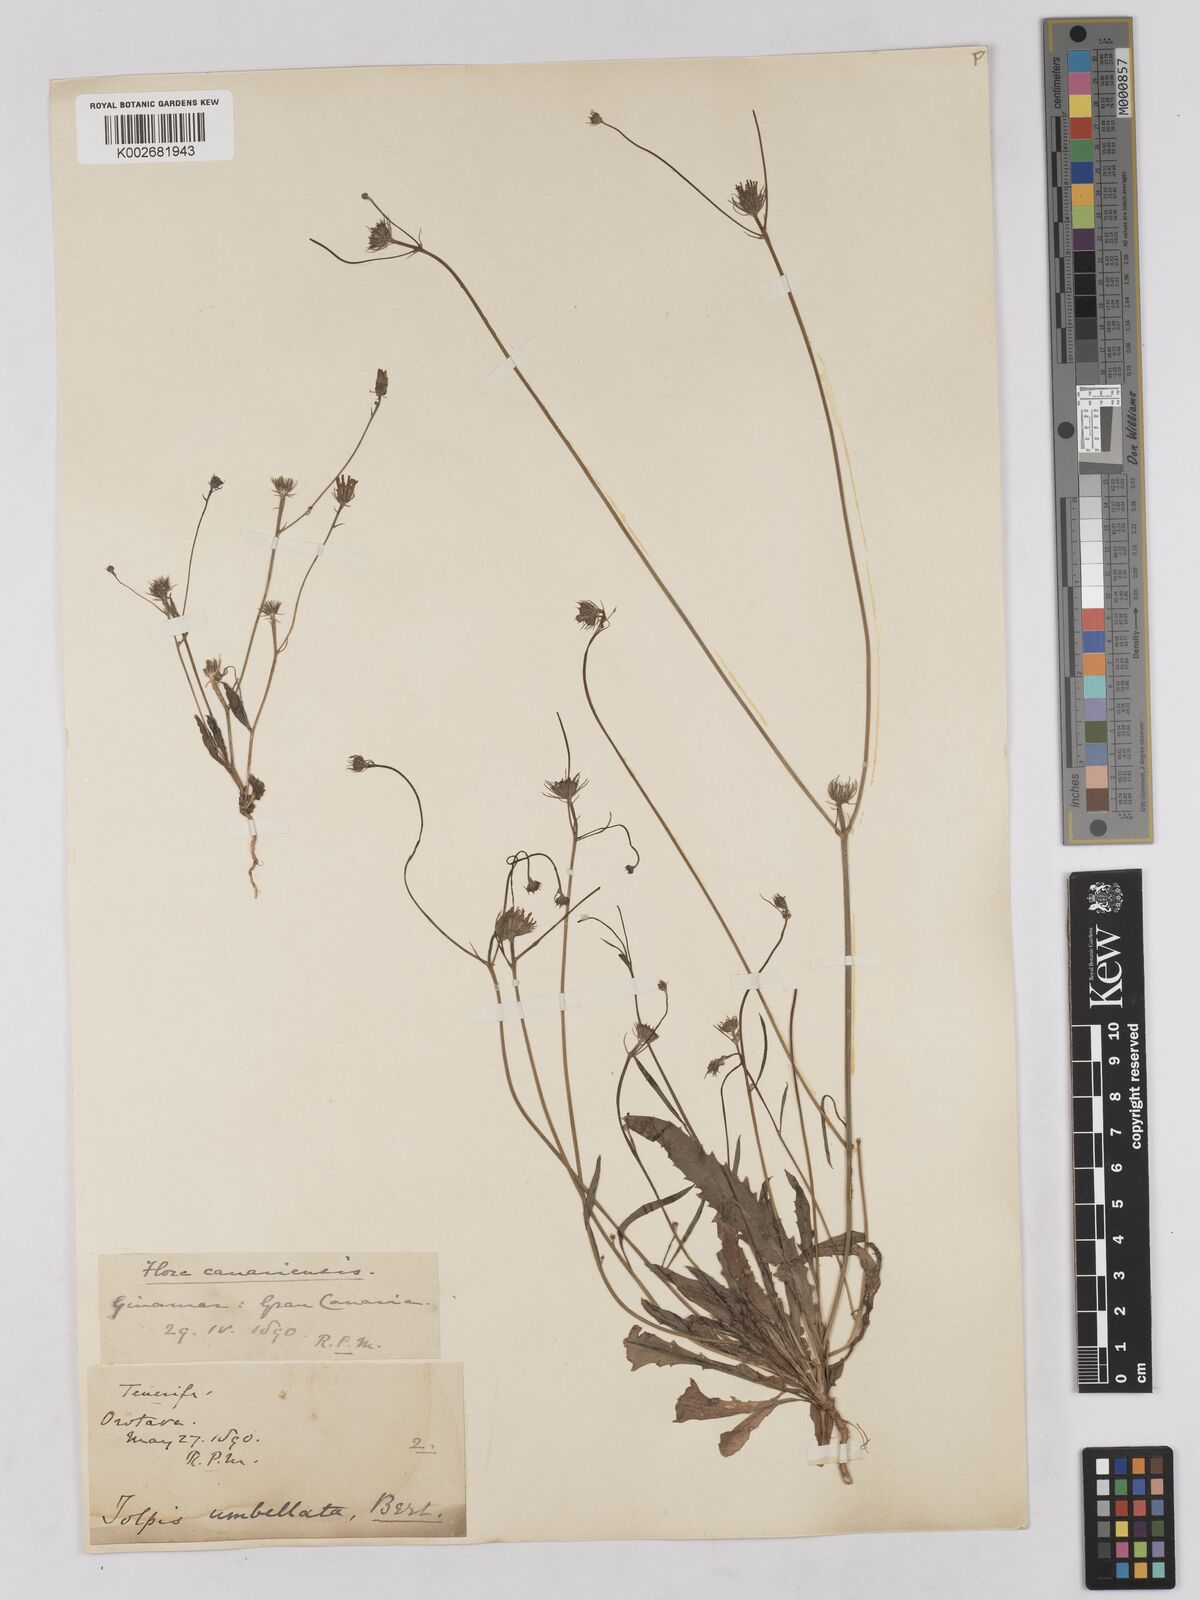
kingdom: Plantae
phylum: Tracheophyta
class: Magnoliopsida
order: Asterales
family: Asteraceae
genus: Tolpis
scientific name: Tolpis umbellata
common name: Yellow hawkweed
